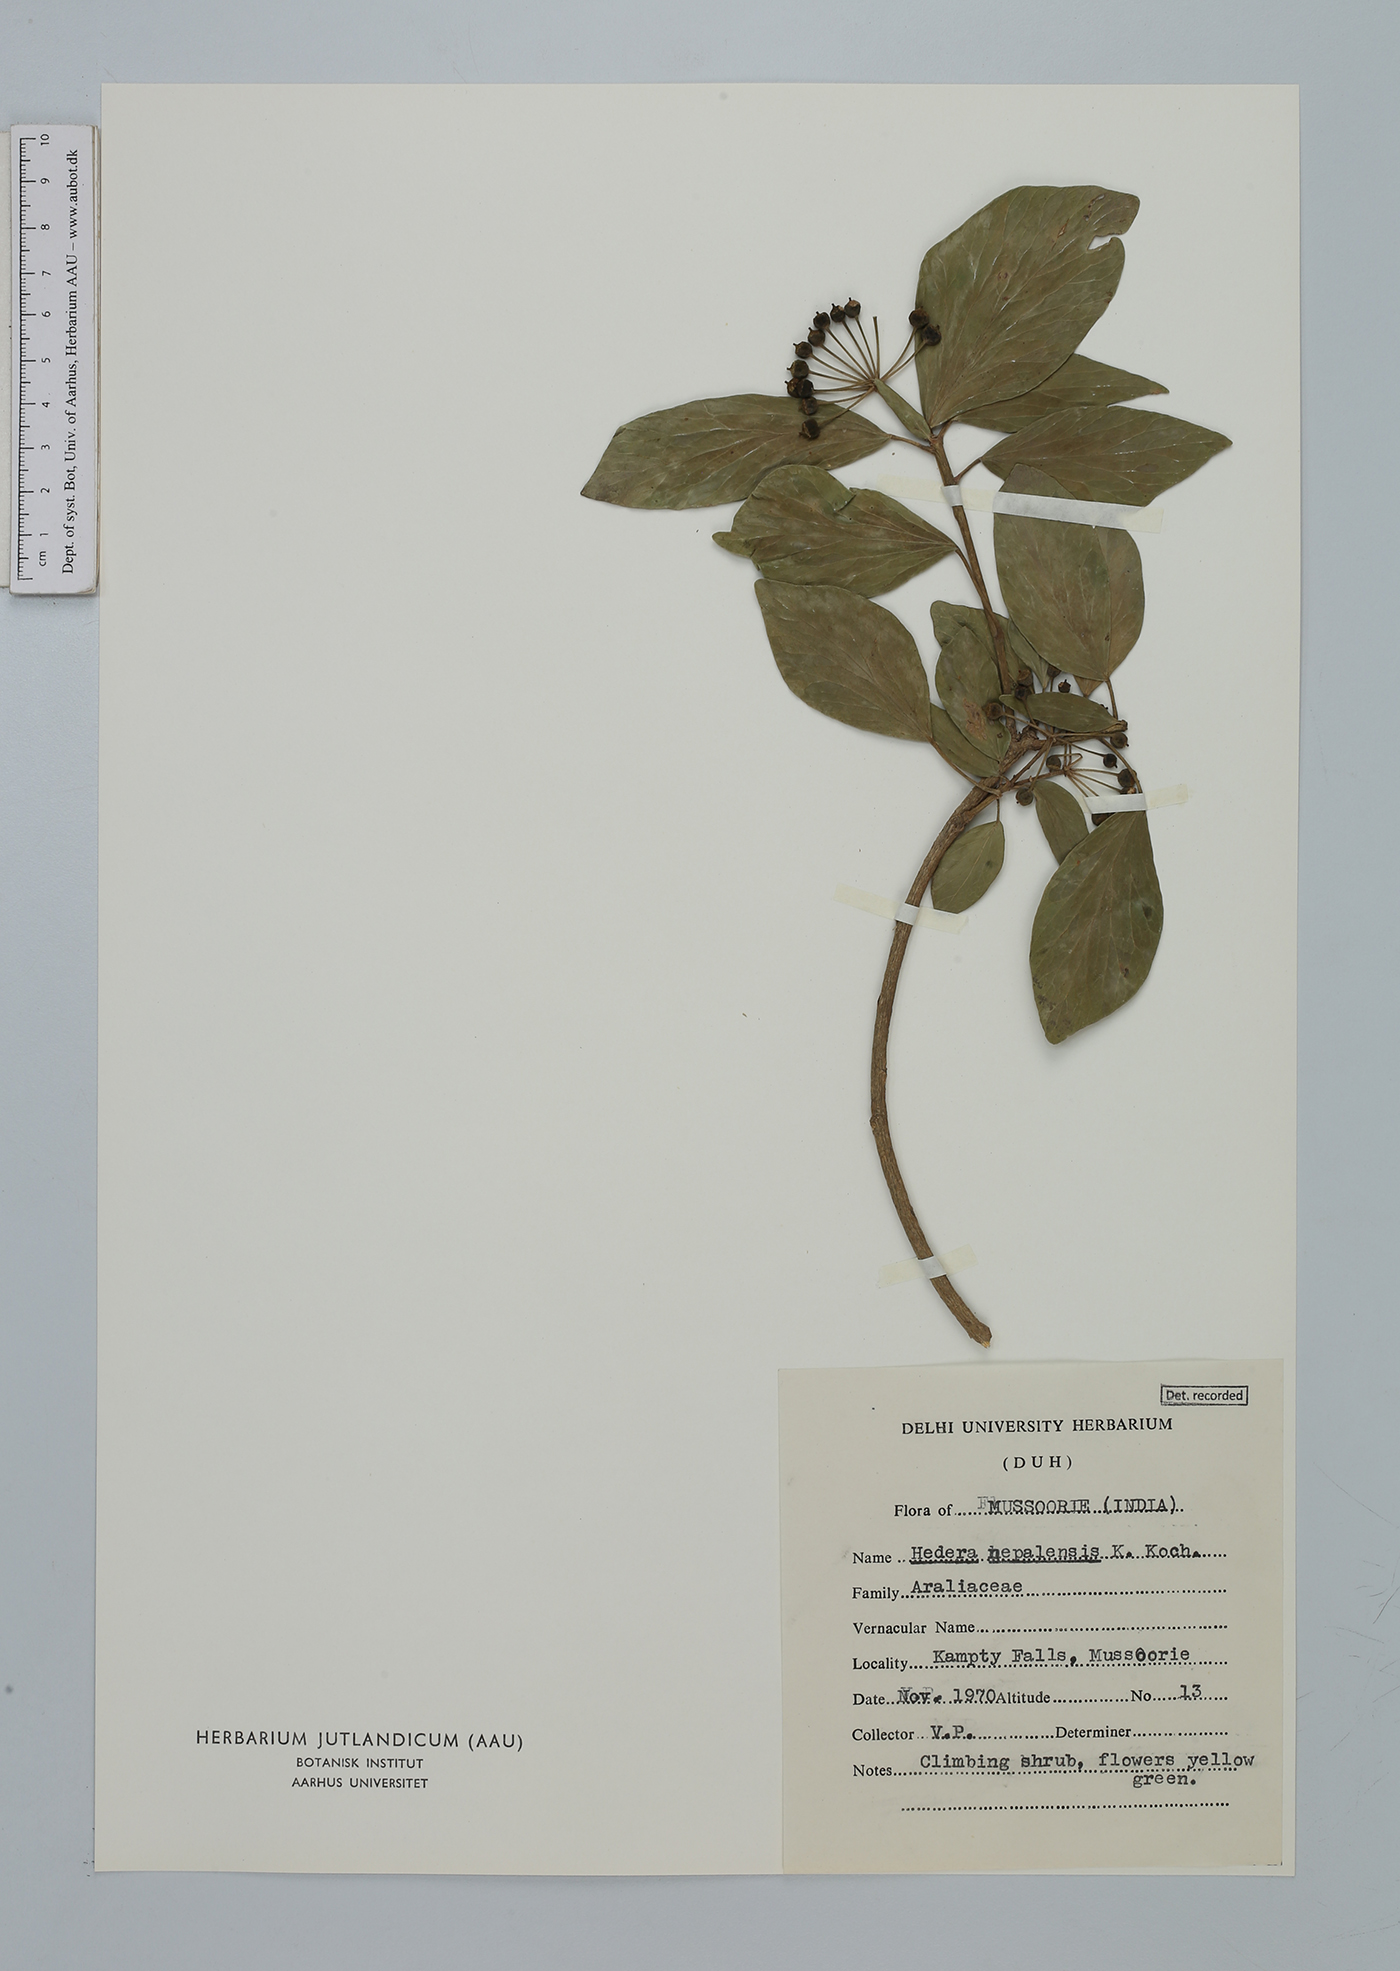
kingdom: Plantae
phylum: Tracheophyta
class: Magnoliopsida
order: Apiales
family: Araliaceae
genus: Hedera
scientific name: Hedera nepalensis
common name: Himalayan ivy
